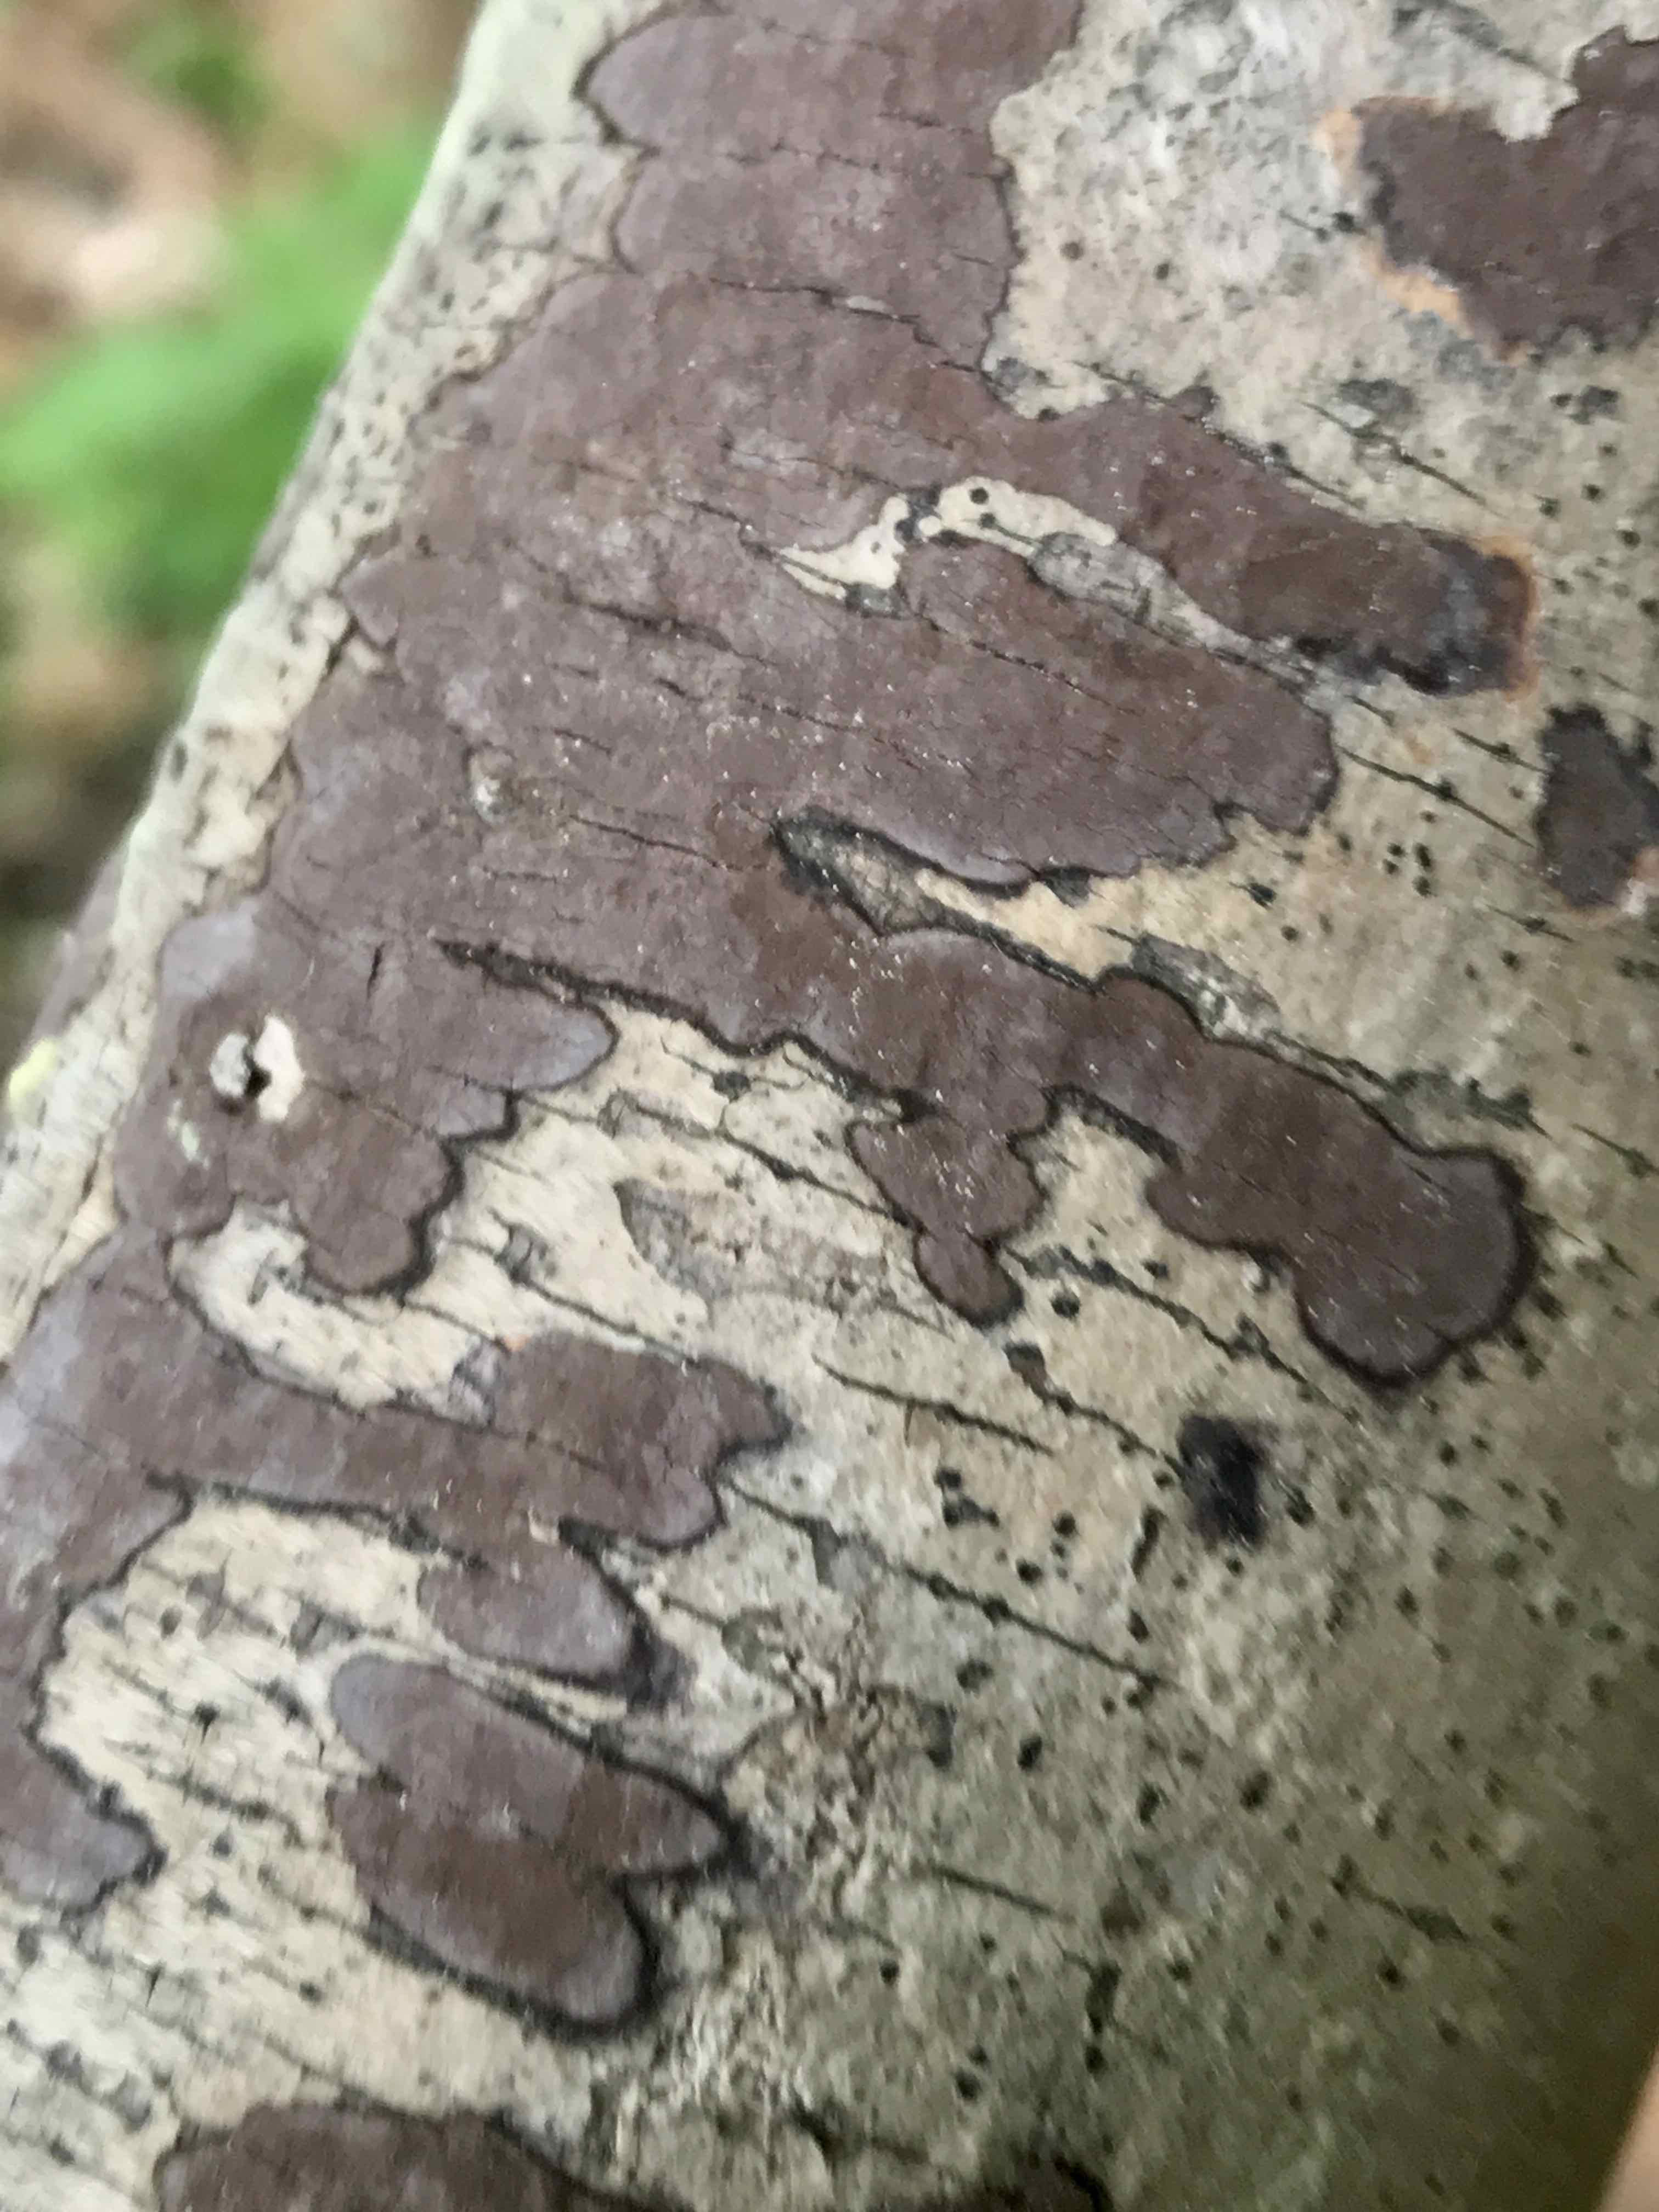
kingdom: Fungi
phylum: Ascomycota
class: Sordariomycetes
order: Xylariales
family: Hypoxylaceae
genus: Hypoxylon
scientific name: Hypoxylon petriniae
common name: nedsænket kulbær
